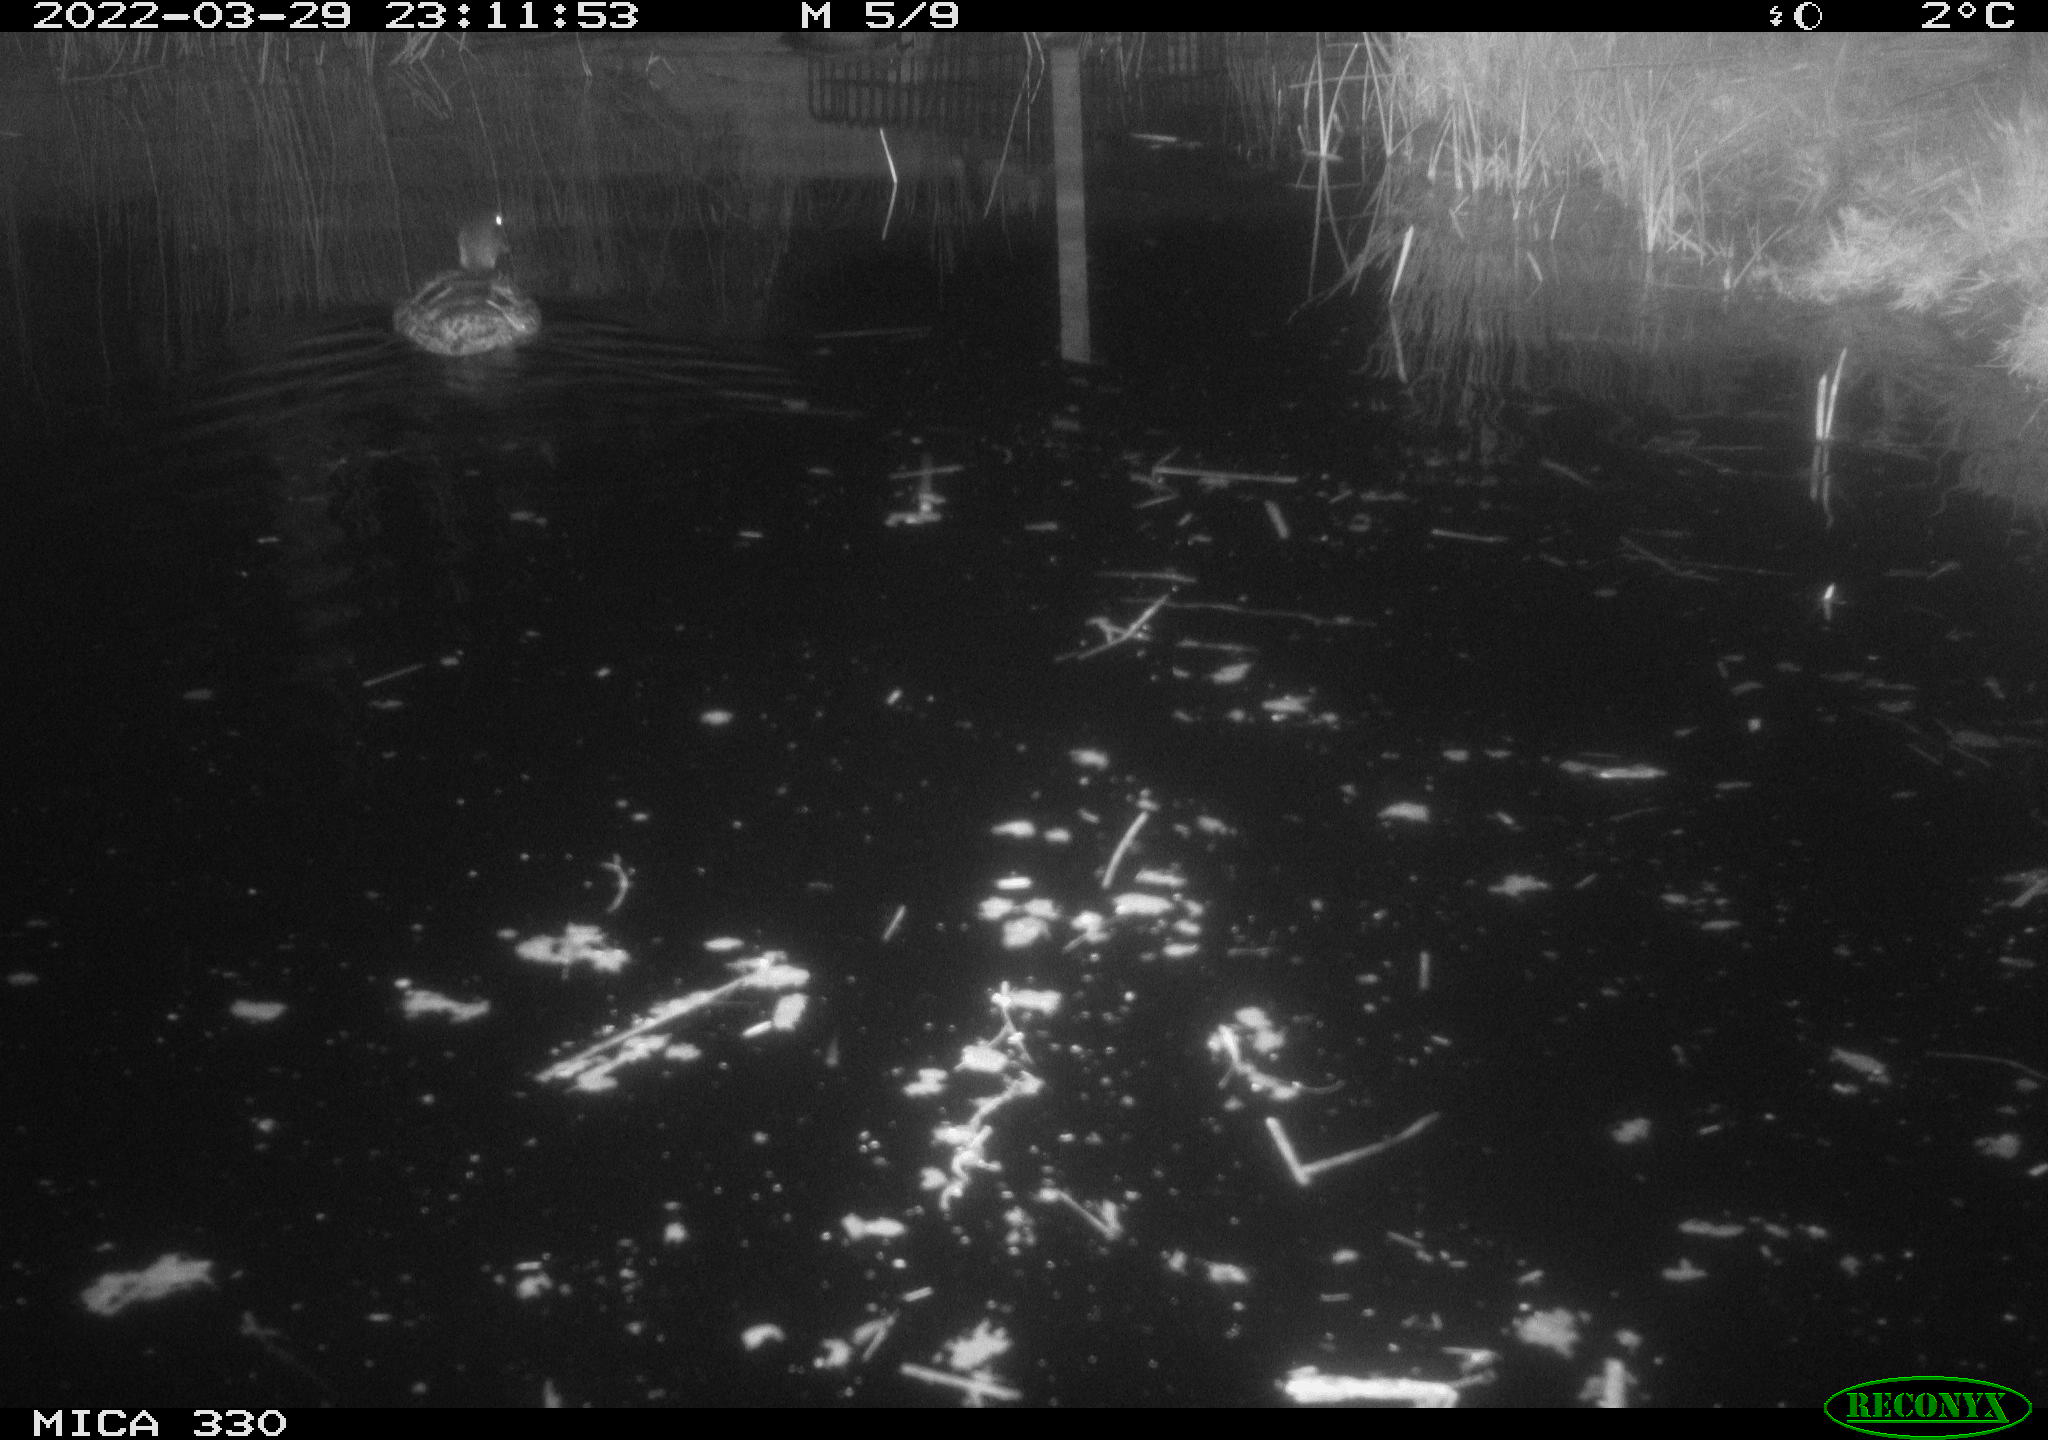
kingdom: Animalia
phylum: Chordata
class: Aves
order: Anseriformes
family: Anatidae
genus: Anas
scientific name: Anas platyrhynchos
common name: Mallard
